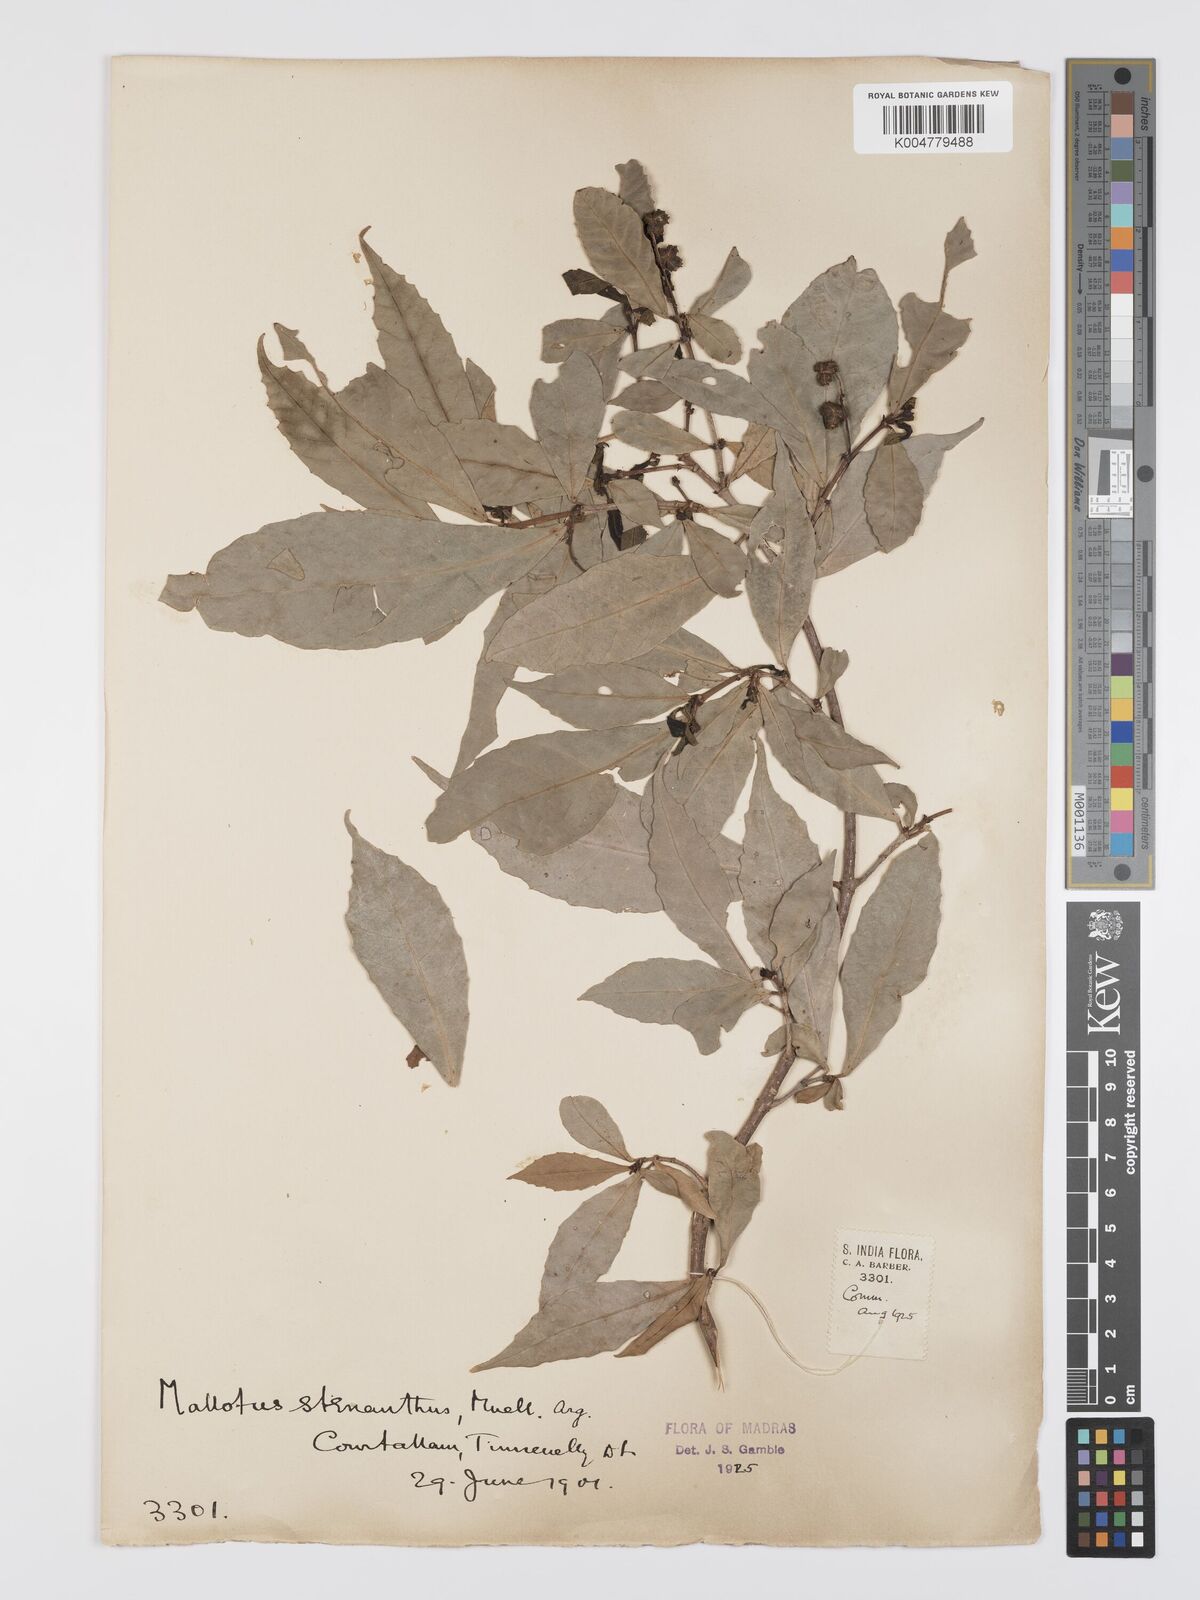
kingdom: Plantae
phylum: Tracheophyta
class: Magnoliopsida
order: Malpighiales
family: Euphorbiaceae
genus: Mallotus
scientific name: Mallotus resinosus
